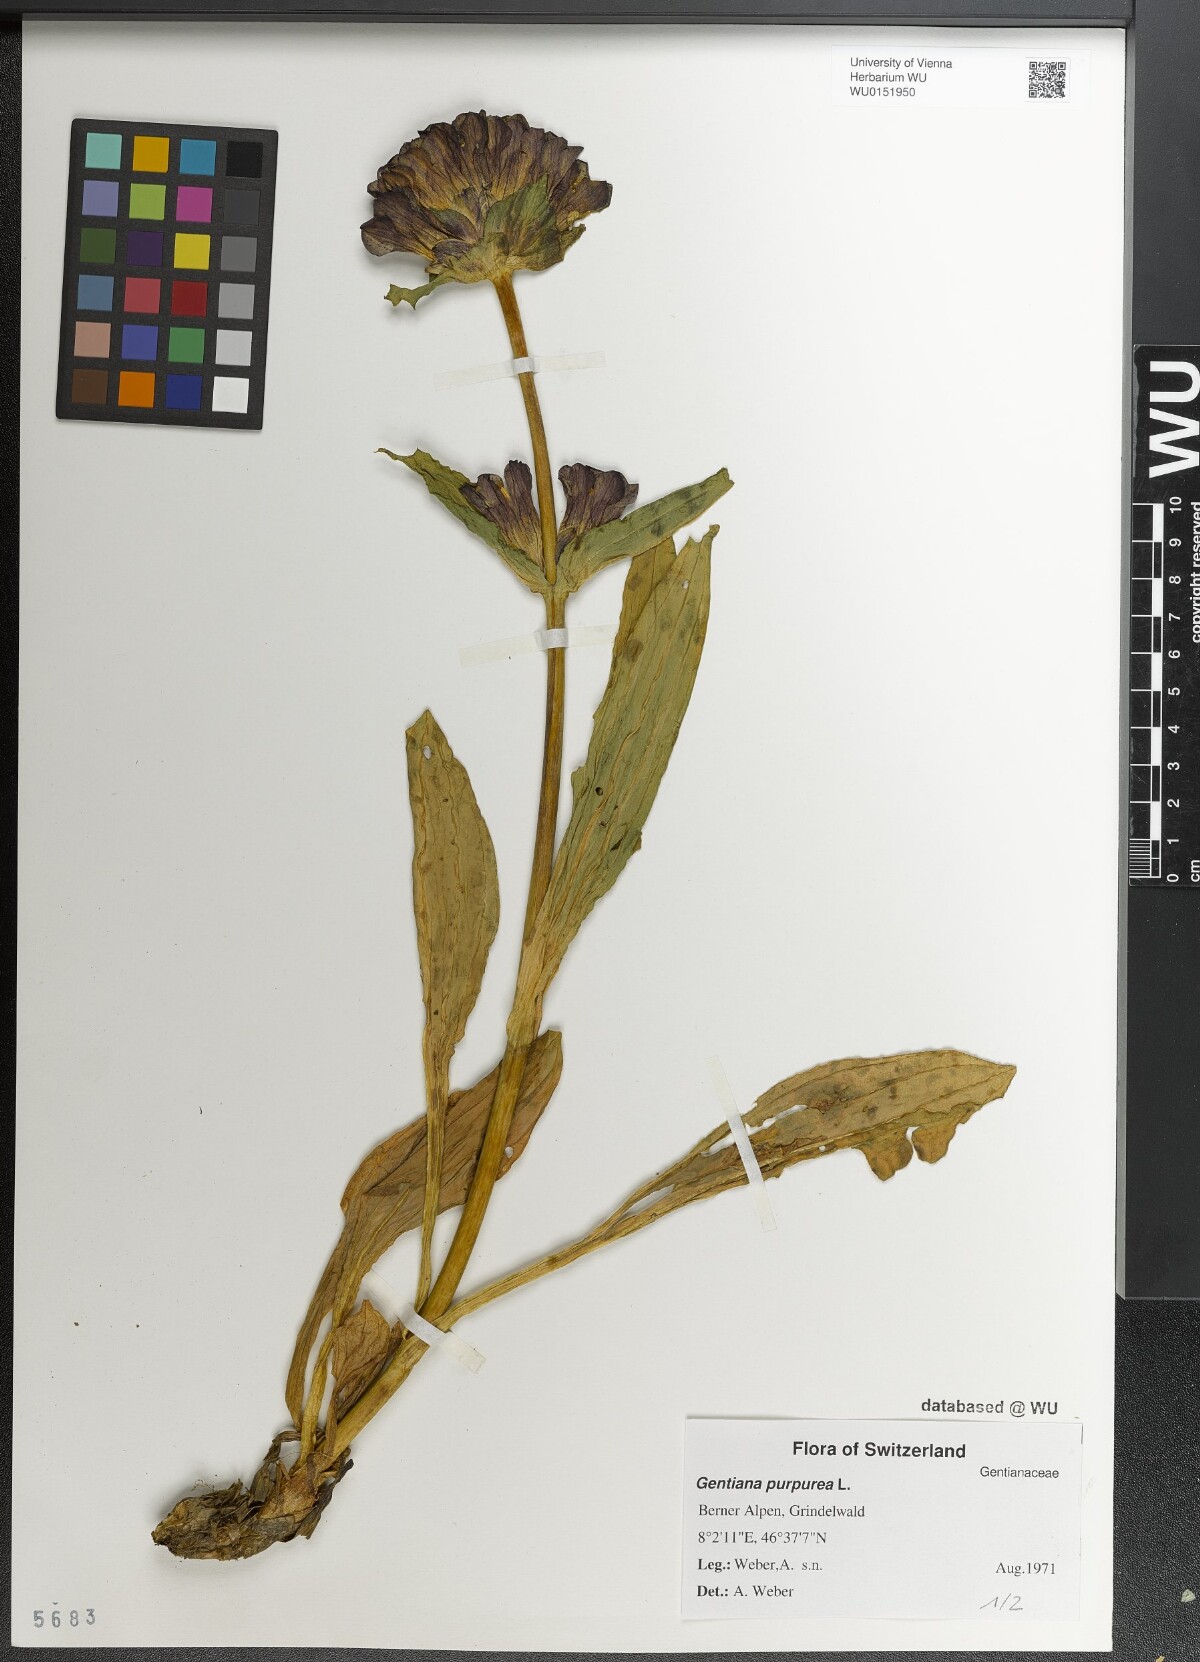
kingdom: Plantae
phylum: Tracheophyta
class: Magnoliopsida
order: Gentianales
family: Gentianaceae
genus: Gentiana
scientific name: Gentiana purpurea
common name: Purple gentian
